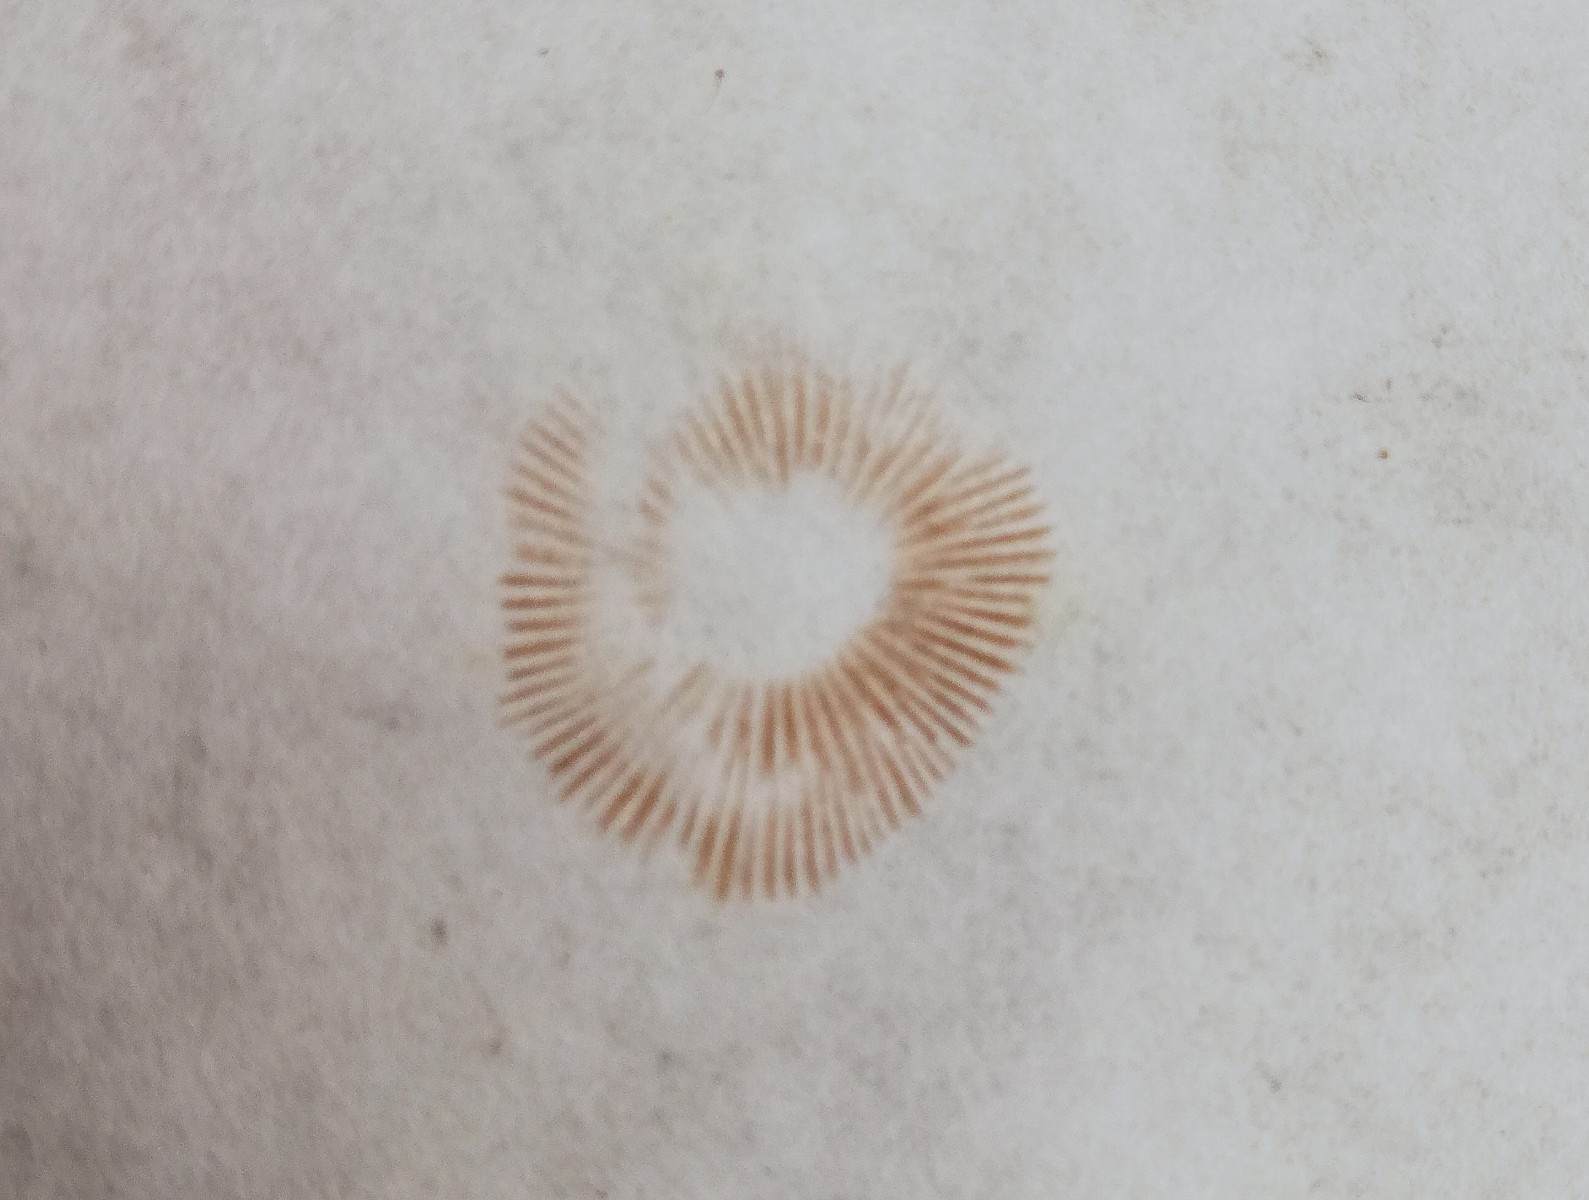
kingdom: Fungi
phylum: Basidiomycota
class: Agaricomycetes
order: Agaricales
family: Inocybaceae
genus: Inocybe
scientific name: Inocybe cincinnata
